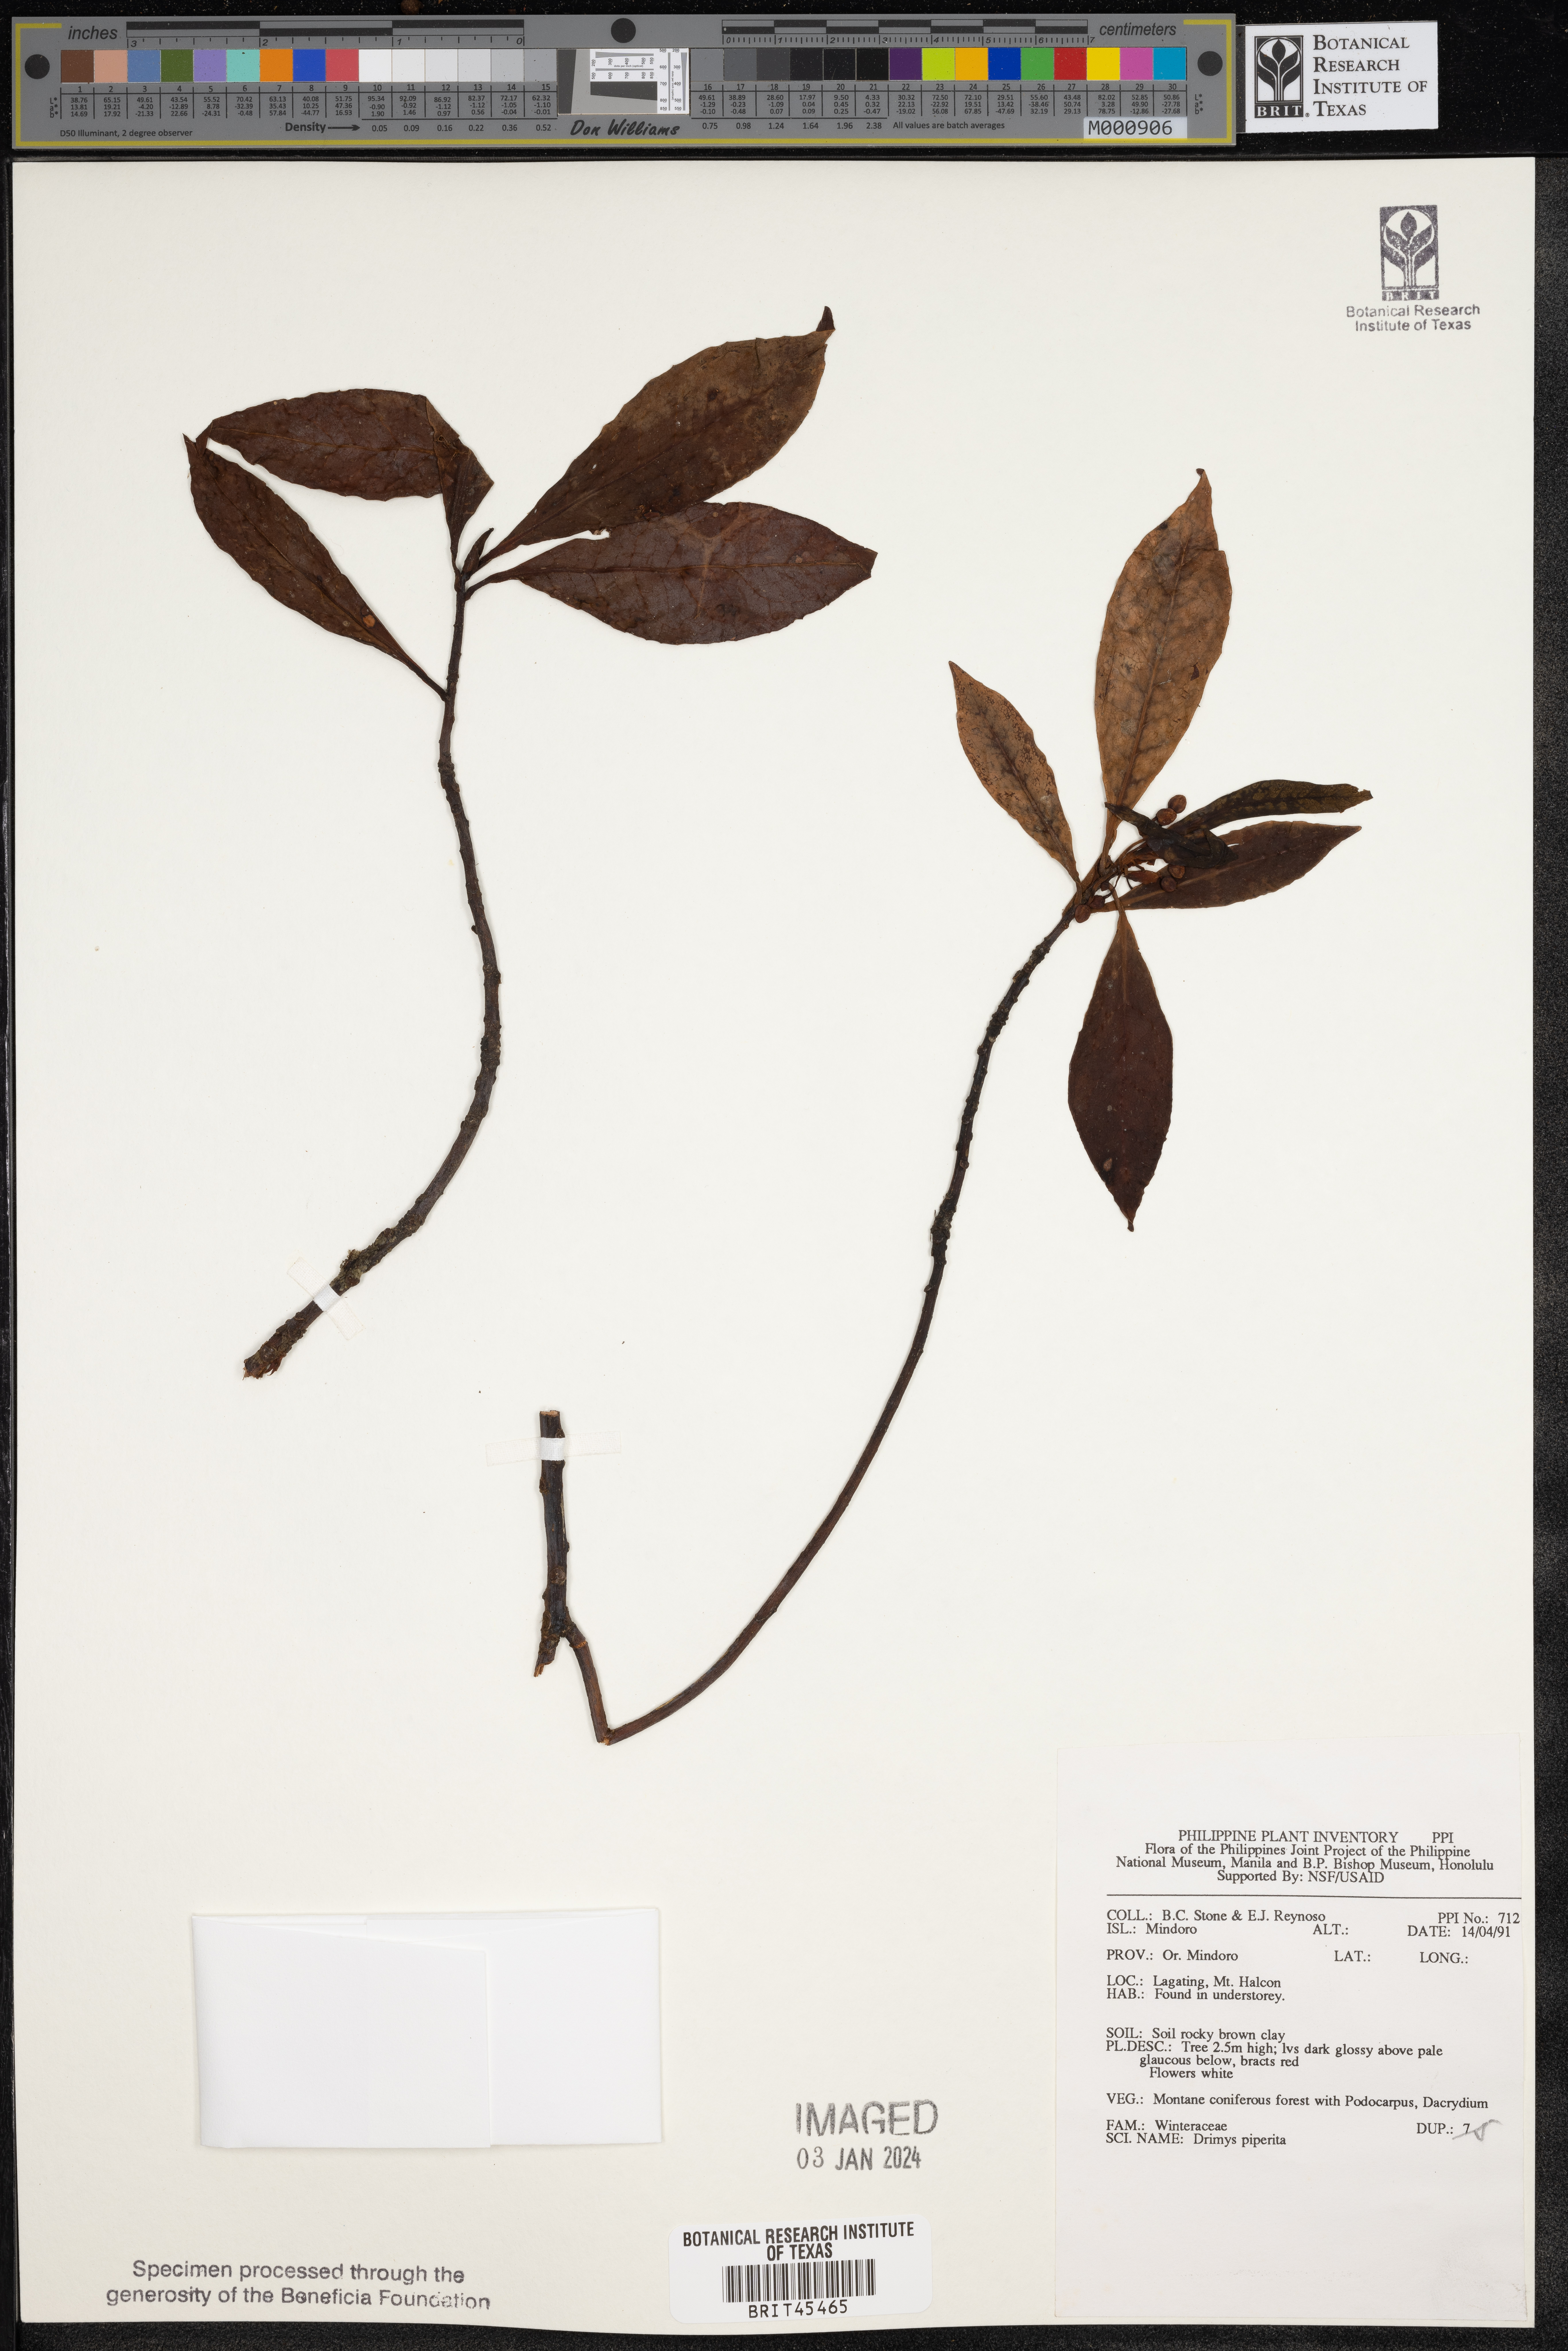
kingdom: Plantae
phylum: Tracheophyta
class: Magnoliopsida
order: Canellales
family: Winteraceae
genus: Drimys
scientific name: Drimys piperita
